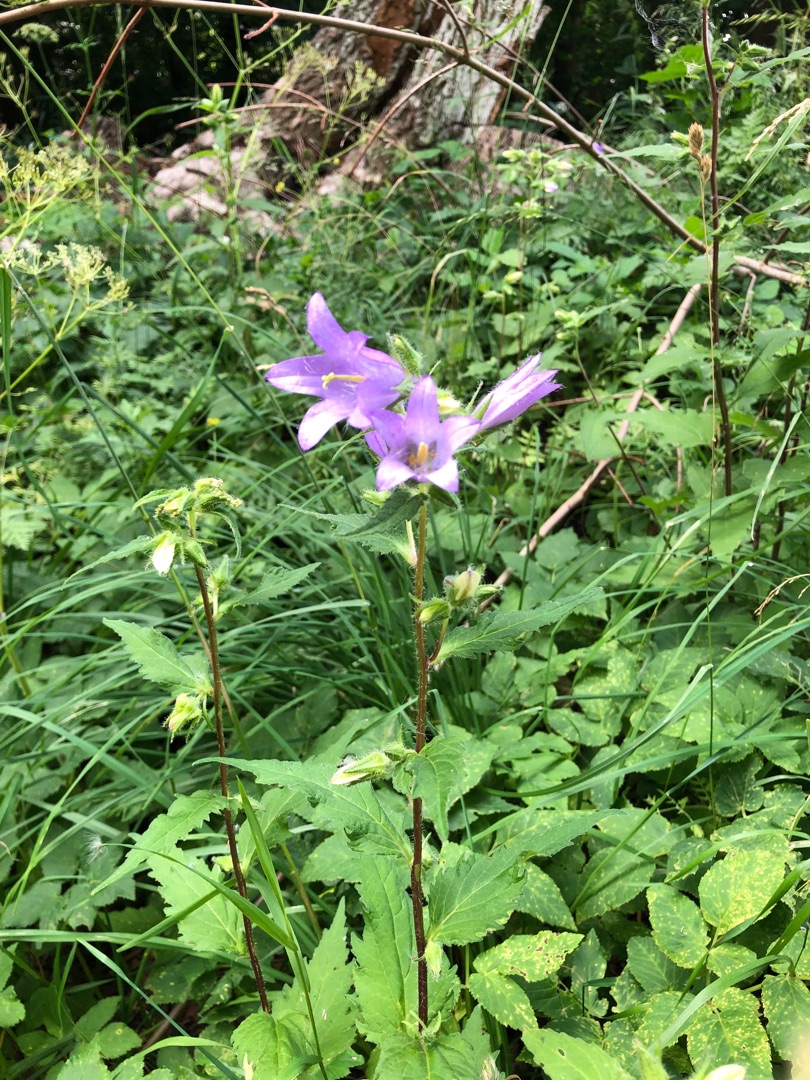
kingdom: Plantae
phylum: Tracheophyta
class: Magnoliopsida
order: Asterales
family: Campanulaceae
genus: Campanula
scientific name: Campanula trachelium
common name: Nælde-klokke
